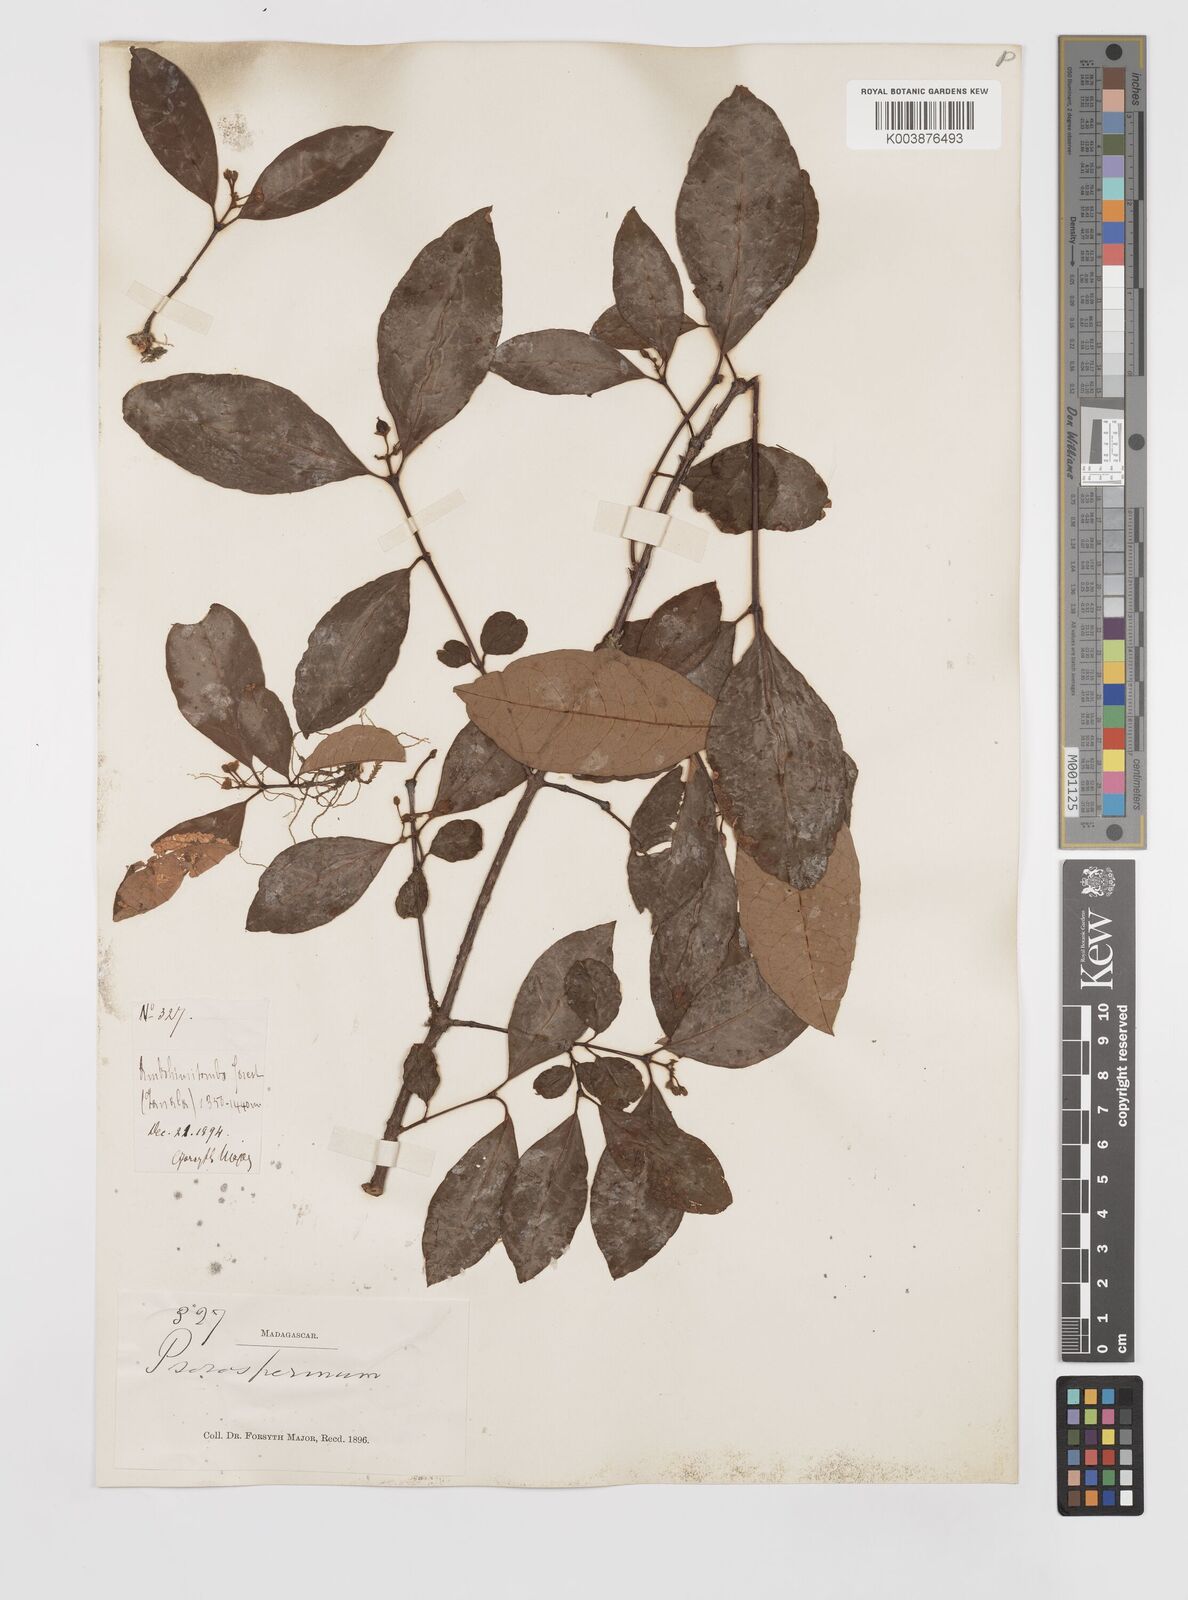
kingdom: Plantae
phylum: Tracheophyta
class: Magnoliopsida
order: Malpighiales
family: Hypericaceae
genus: Psorospermum
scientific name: Psorospermum
